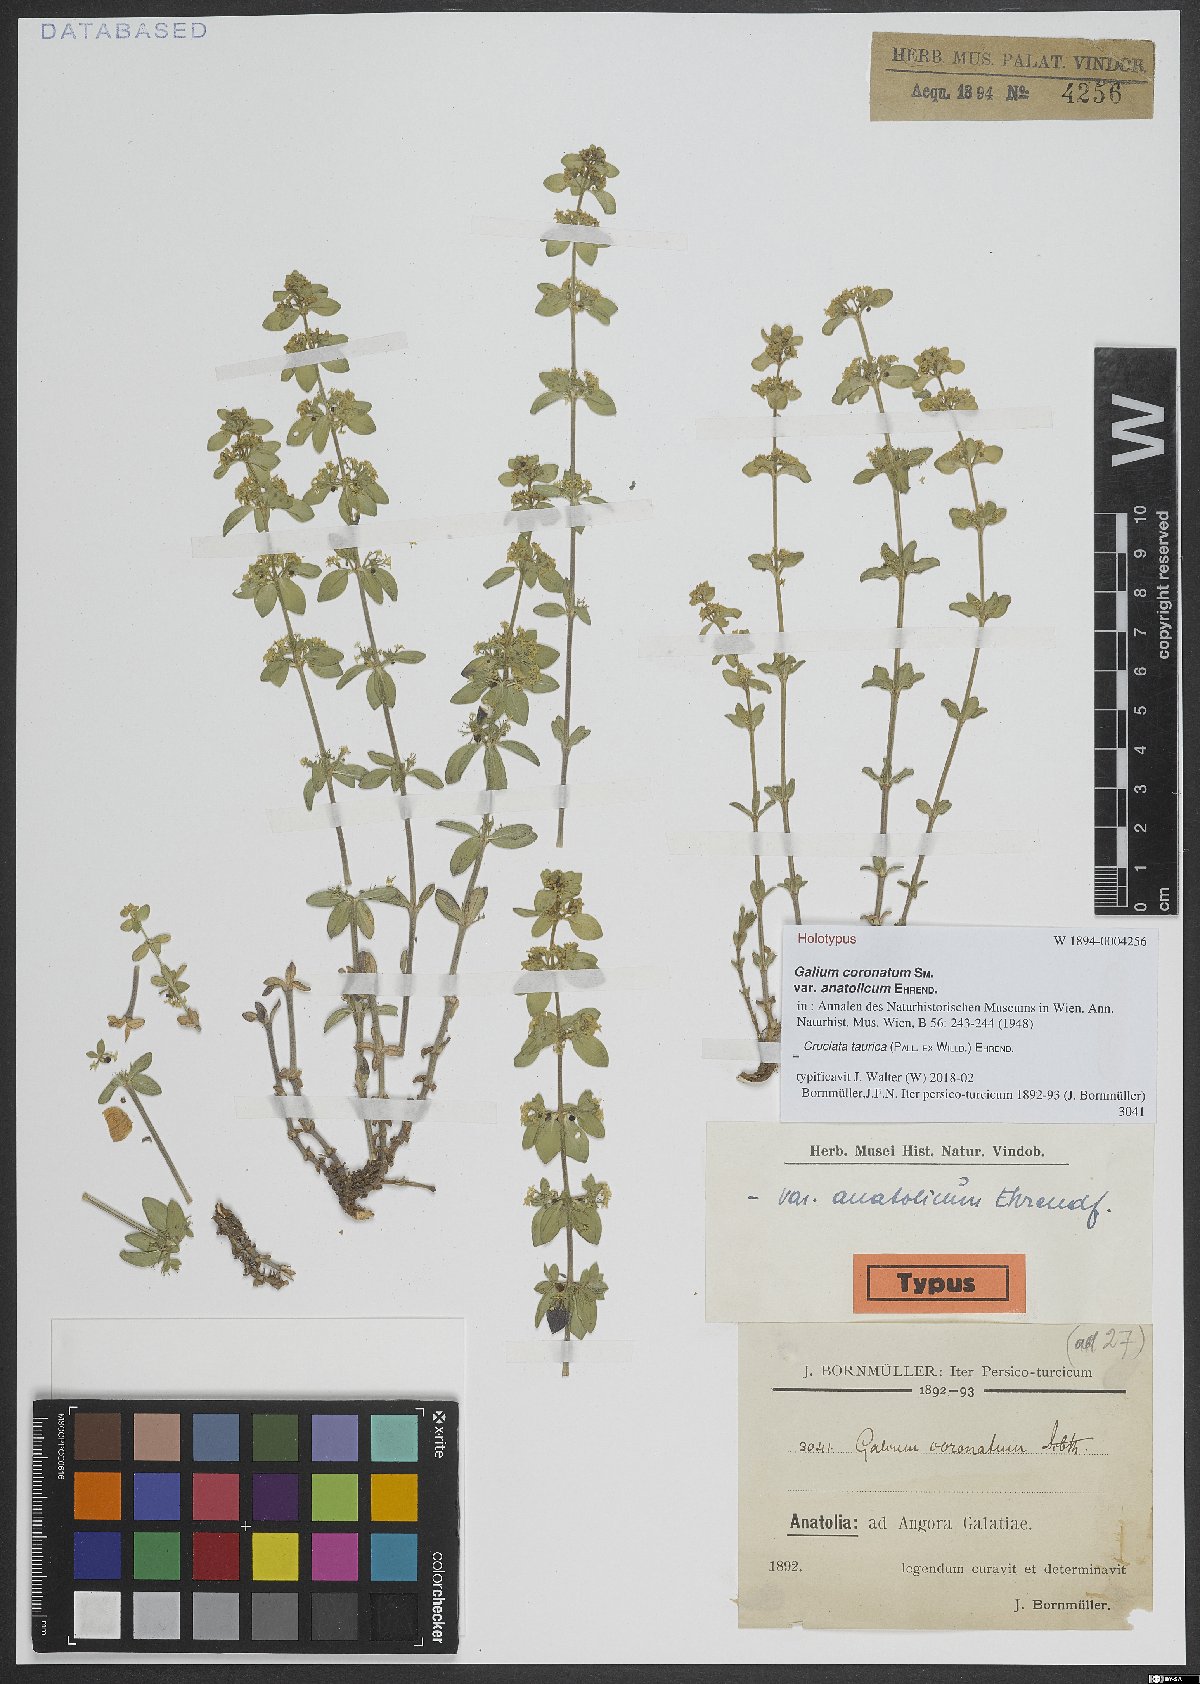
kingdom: Plantae
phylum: Tracheophyta
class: Magnoliopsida
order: Gentianales
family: Rubiaceae
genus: Cruciata
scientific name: Cruciata taurica
